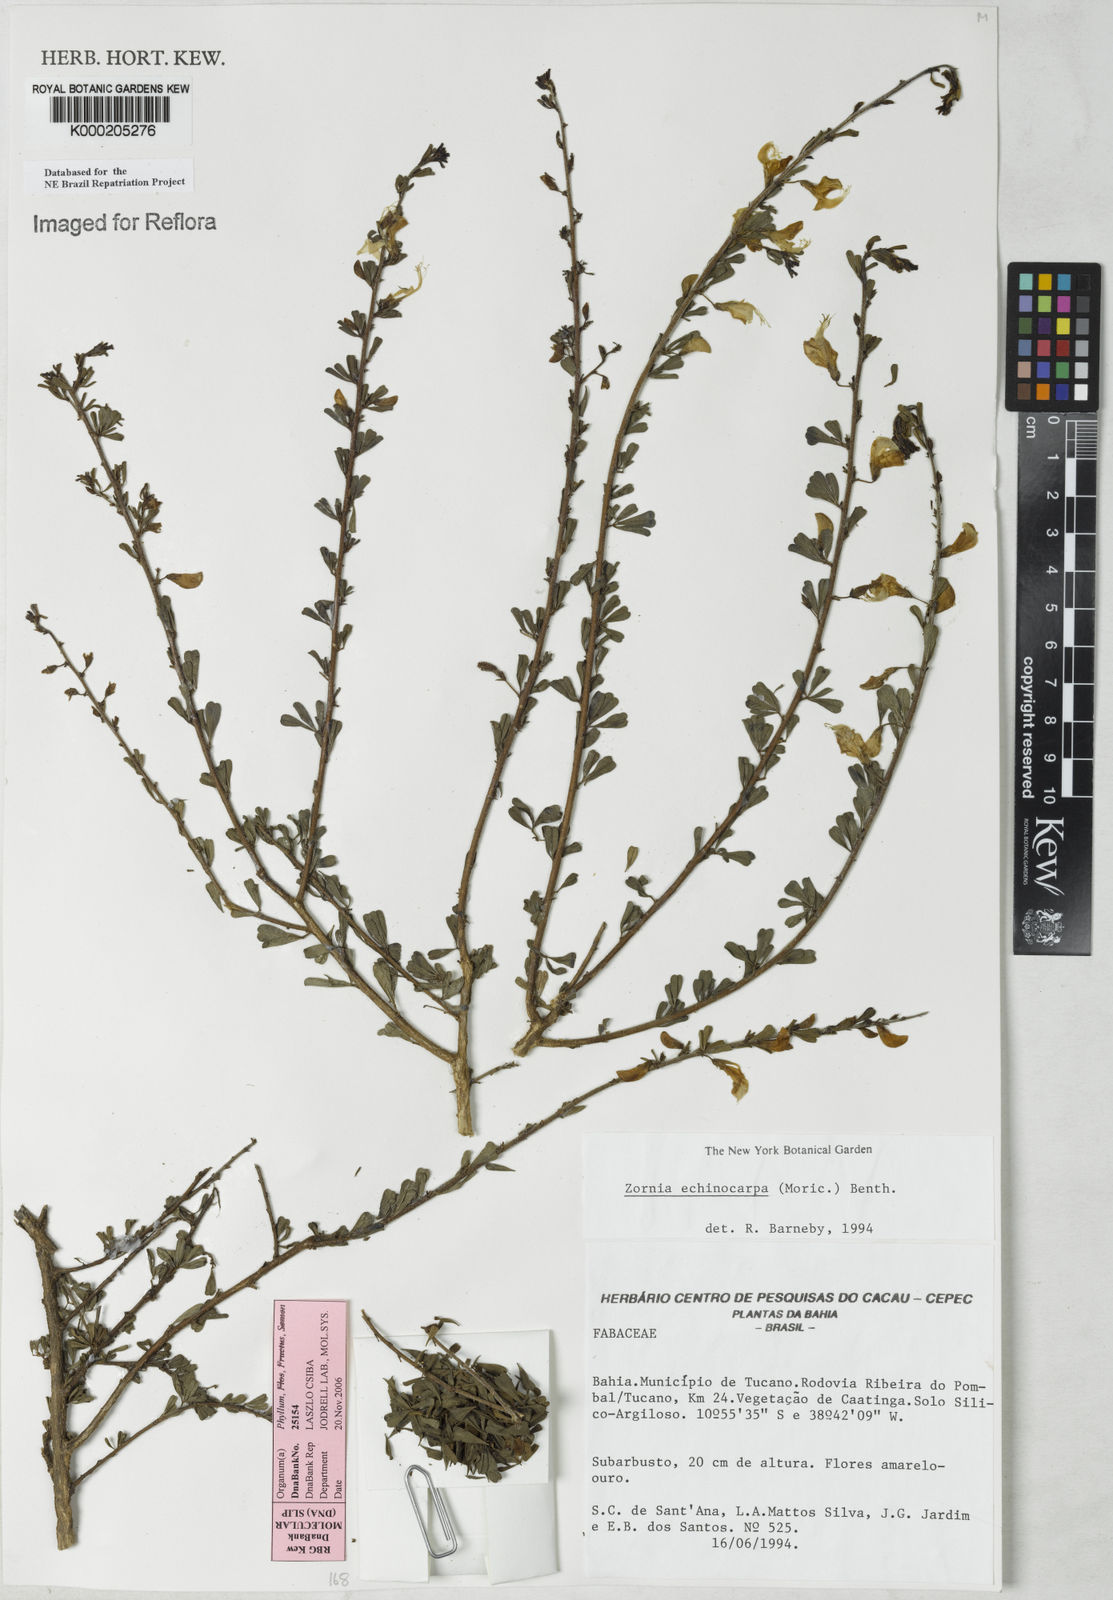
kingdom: Plantae
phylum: Tracheophyta
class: Magnoliopsida
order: Fabales
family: Fabaceae
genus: Zornia
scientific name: Zornia echinocarpa
